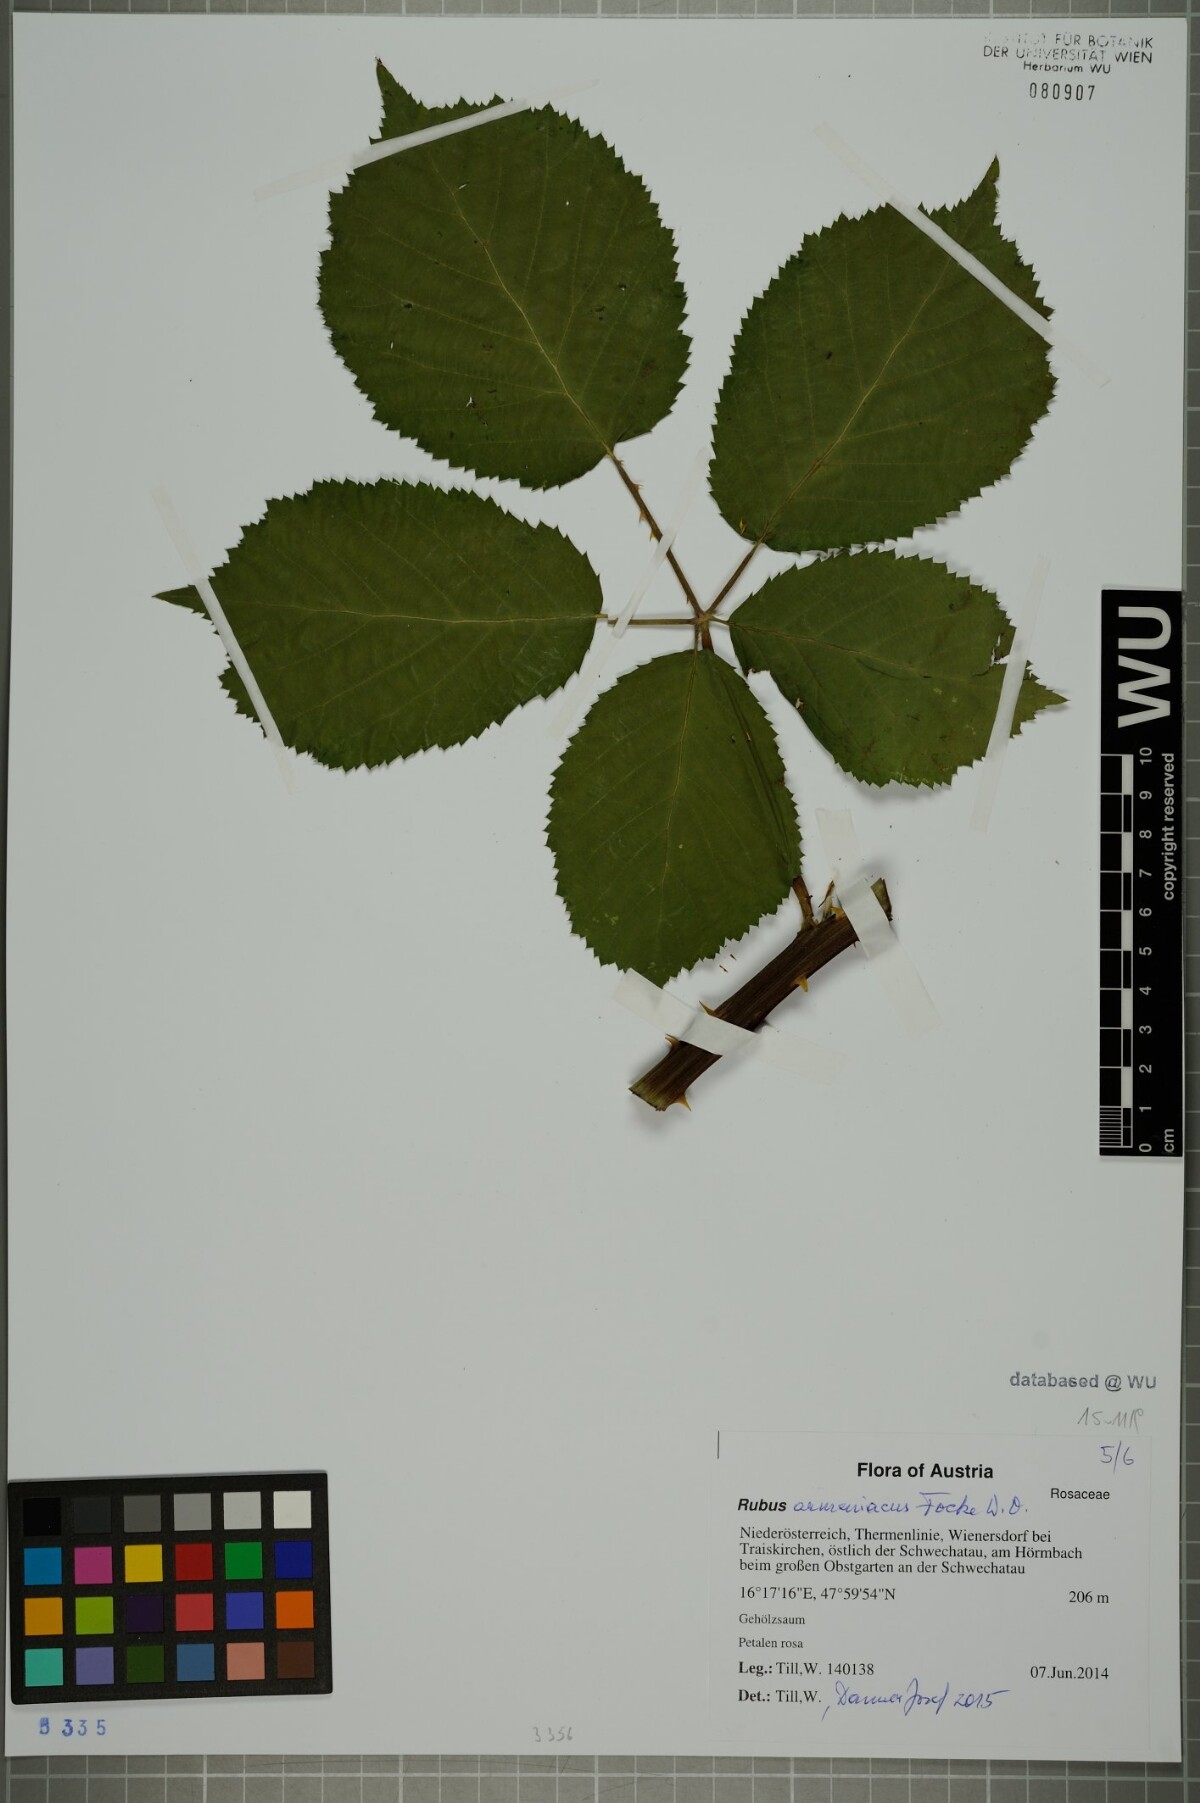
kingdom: Plantae
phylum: Tracheophyta
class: Magnoliopsida
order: Rosales
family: Rosaceae
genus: Rubus
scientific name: Rubus armeniacus
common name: Himalayan blackberry
